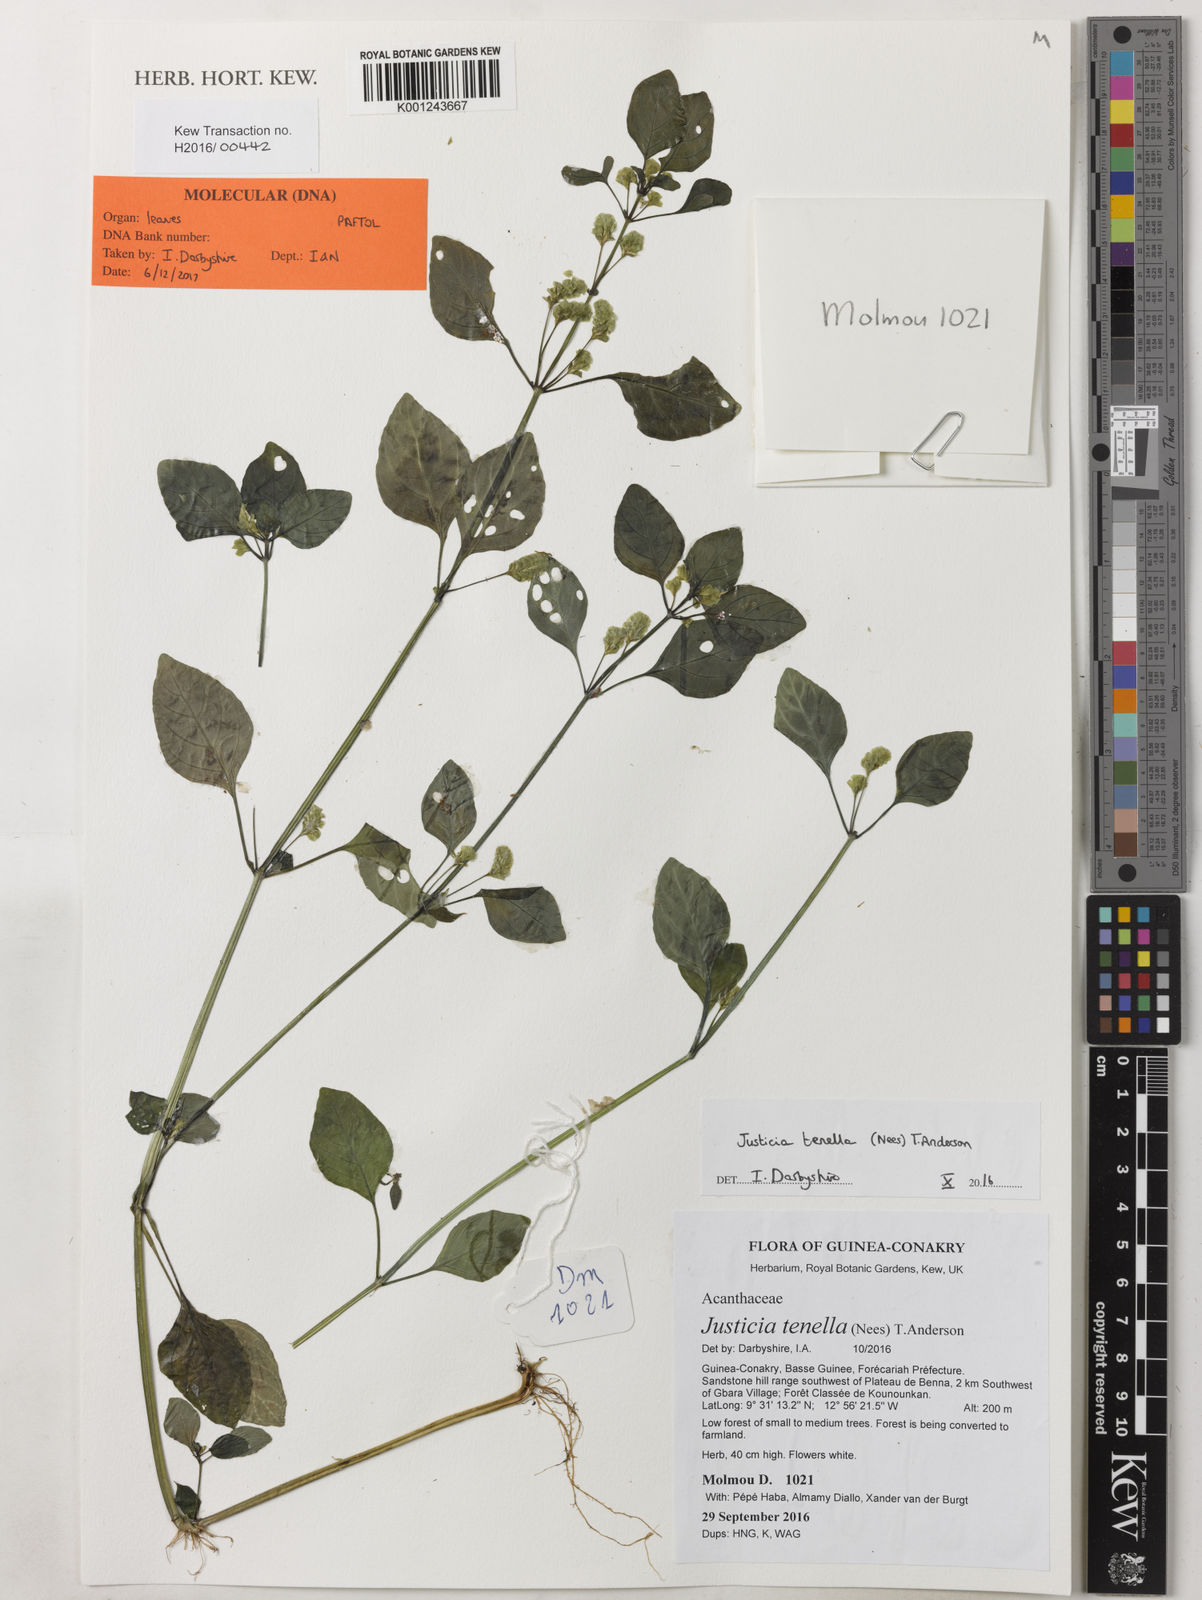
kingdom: Plantae
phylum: Tracheophyta
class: Magnoliopsida
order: Lamiales
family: Acanthaceae
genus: Anisostachya
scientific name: Anisostachya tenella
